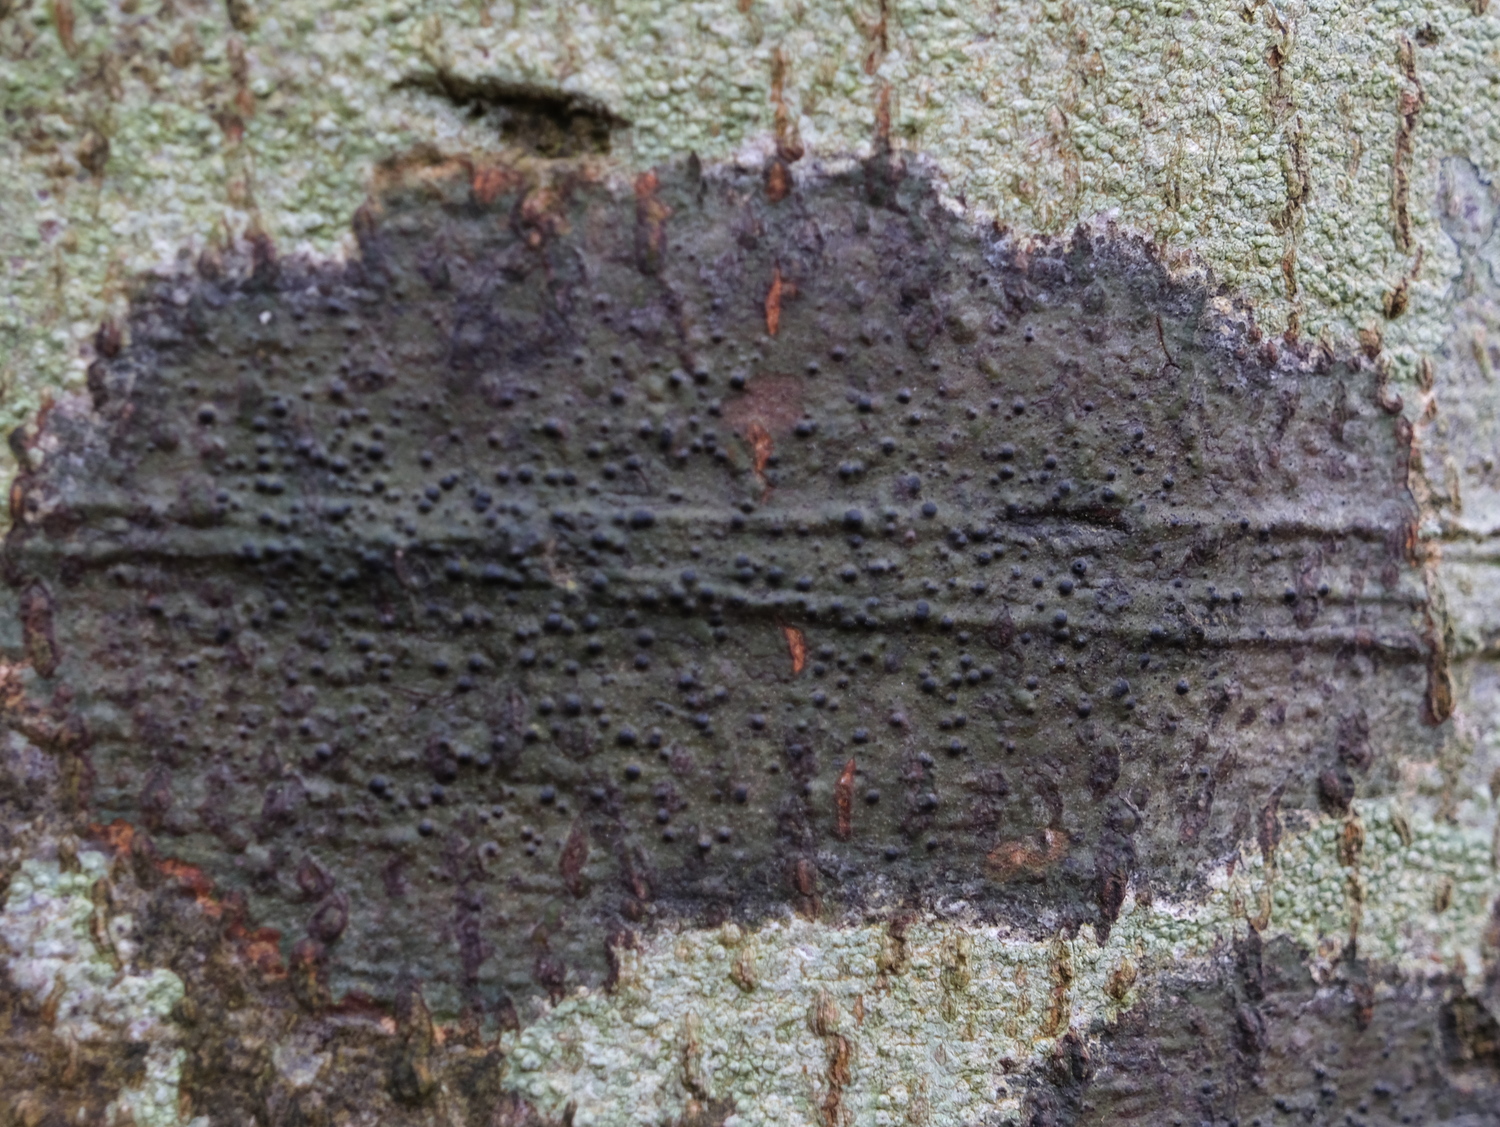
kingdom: Fungi
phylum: Ascomycota
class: Eurotiomycetes
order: Pyrenulales
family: Pyrenulaceae
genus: Pyrenula
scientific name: Pyrenula nitida
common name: glinsende kernelav
